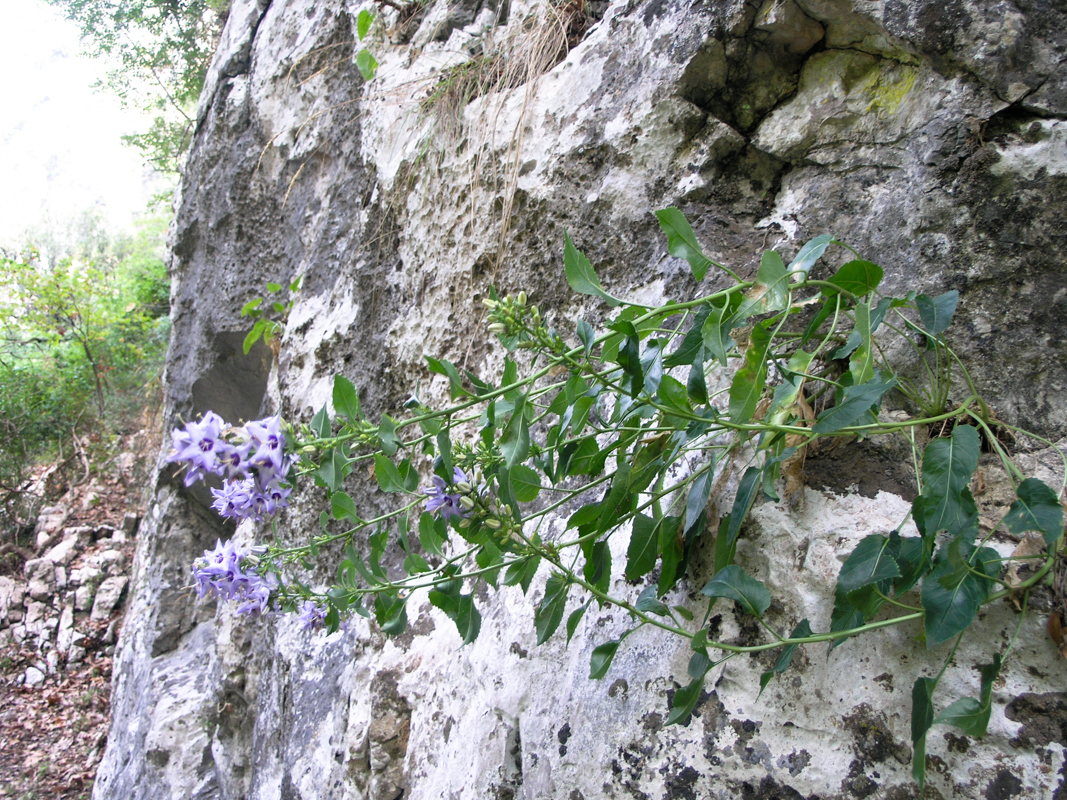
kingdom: Plantae
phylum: Tracheophyta
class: Magnoliopsida
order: Asterales
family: Campanulaceae
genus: Campanula
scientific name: Campanula versicolor
